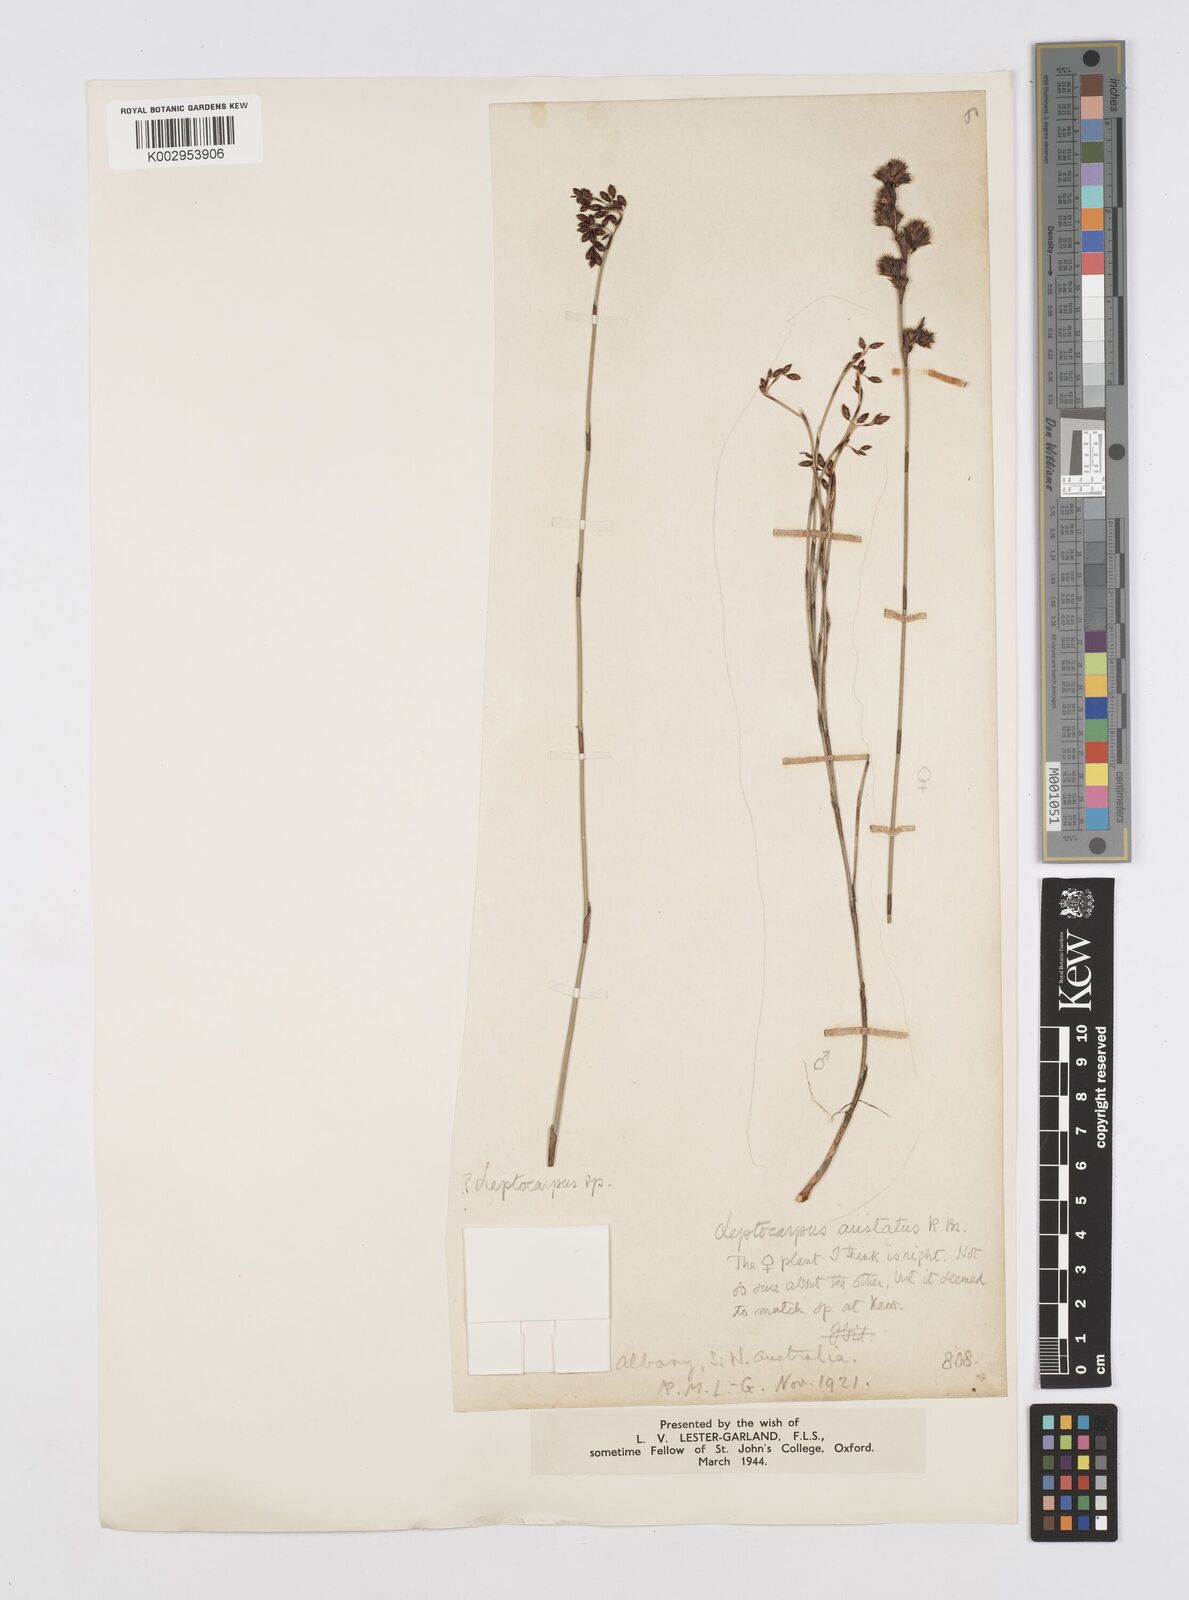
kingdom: Plantae
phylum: Tracheophyta
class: Liliopsida
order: Poales
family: Restionaceae
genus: Chaetanthus
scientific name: Chaetanthus aristatus
